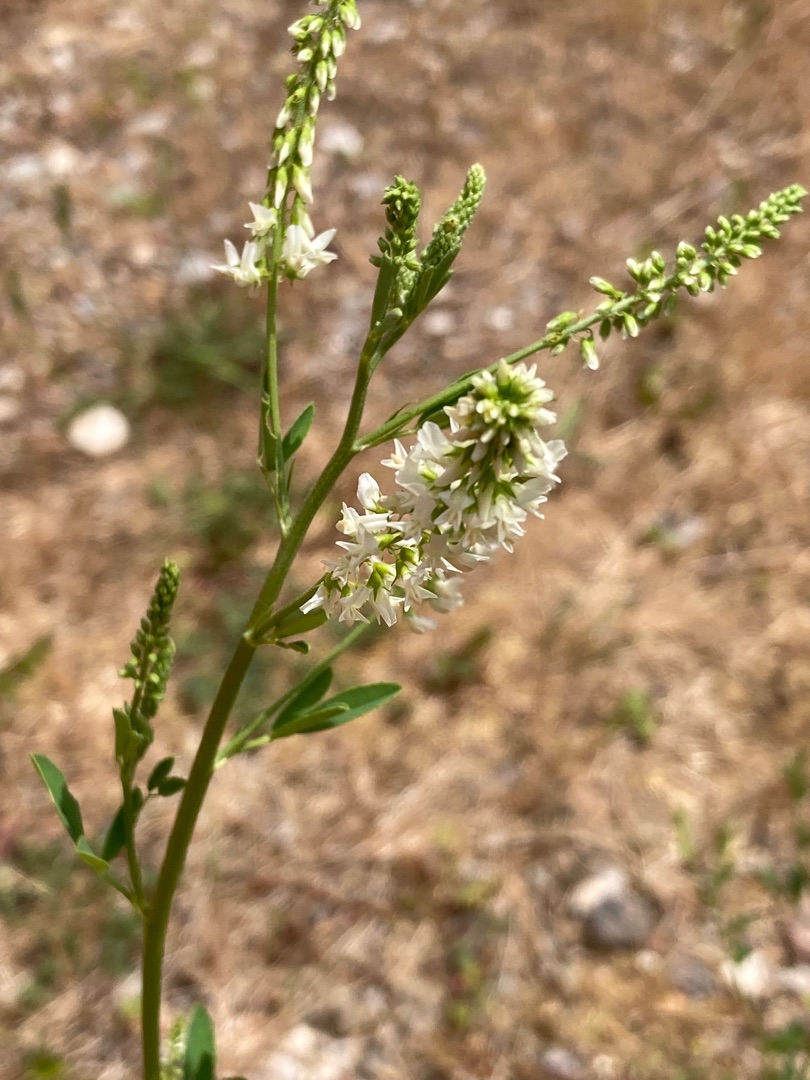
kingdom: Plantae
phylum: Tracheophyta
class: Magnoliopsida
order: Fabales
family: Fabaceae
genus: Melilotus
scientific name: Melilotus albus
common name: Hvid stenkløver
